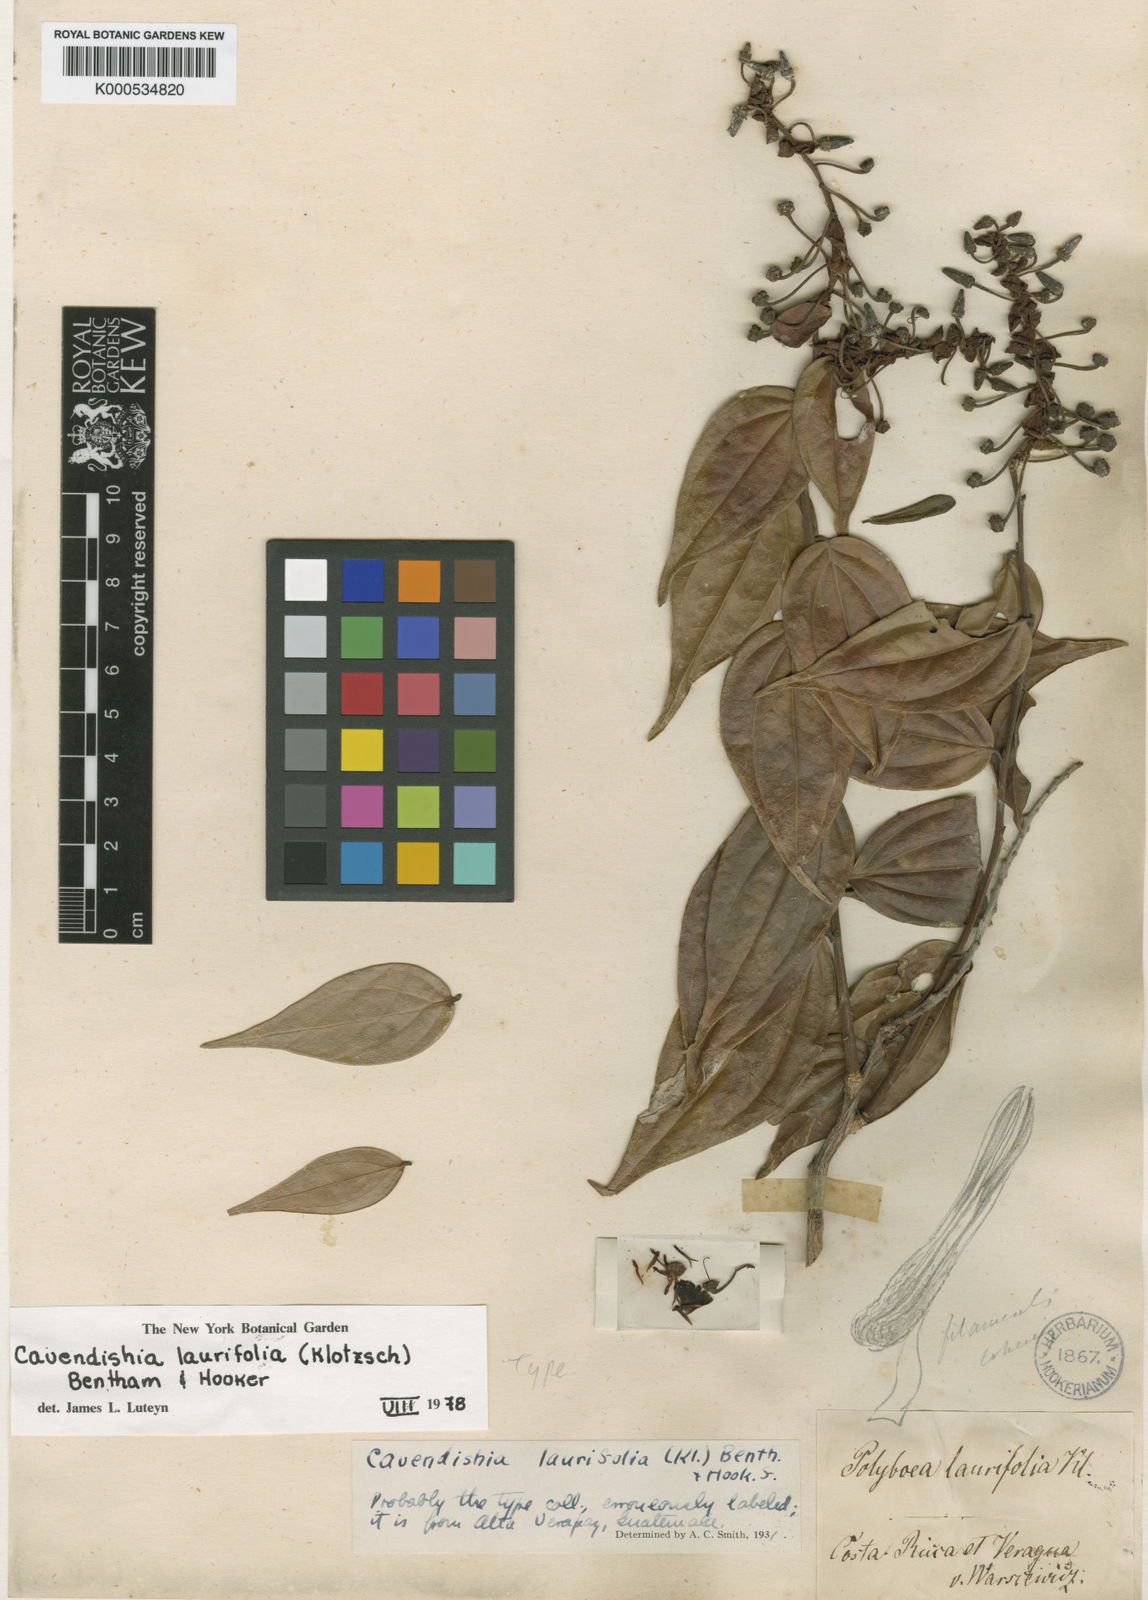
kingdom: Plantae
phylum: Tracheophyta
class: Magnoliopsida
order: Ericales
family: Ericaceae
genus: Cavendishia
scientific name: Cavendishia laurifolia
